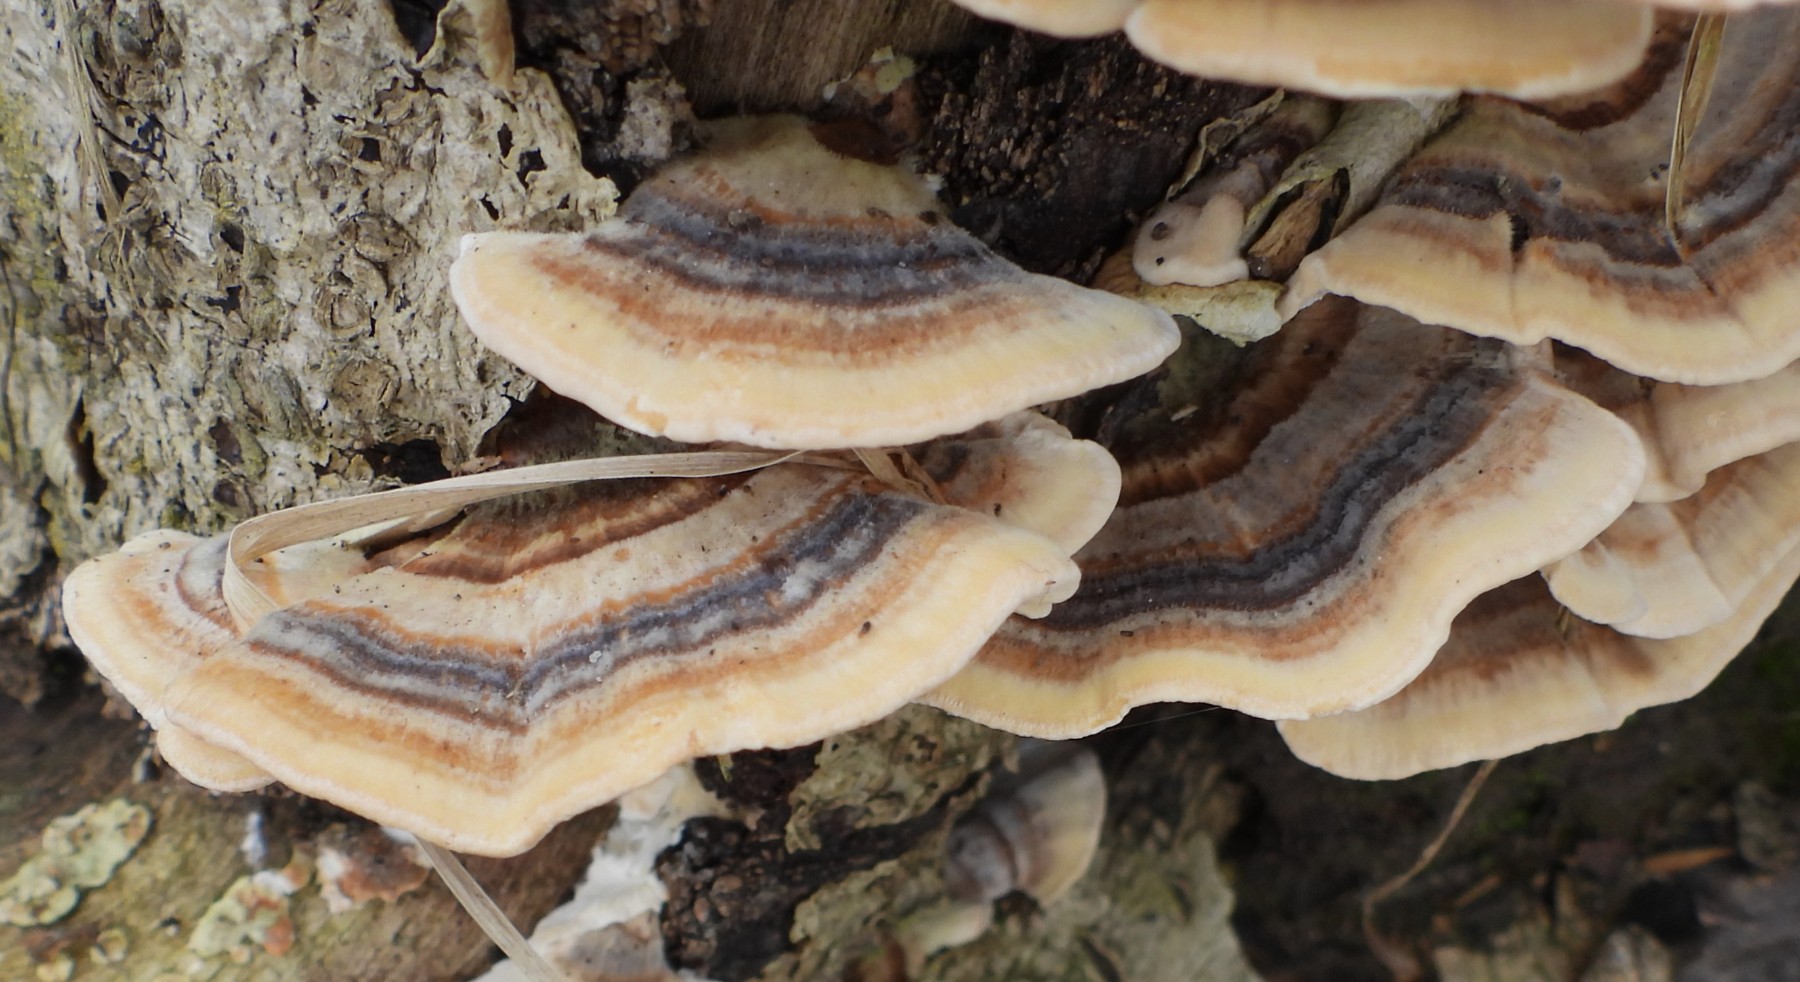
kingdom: Fungi
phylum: Basidiomycota
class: Agaricomycetes
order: Polyporales
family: Polyporaceae
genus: Trametes
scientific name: Trametes versicolor
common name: broget læderporesvamp
